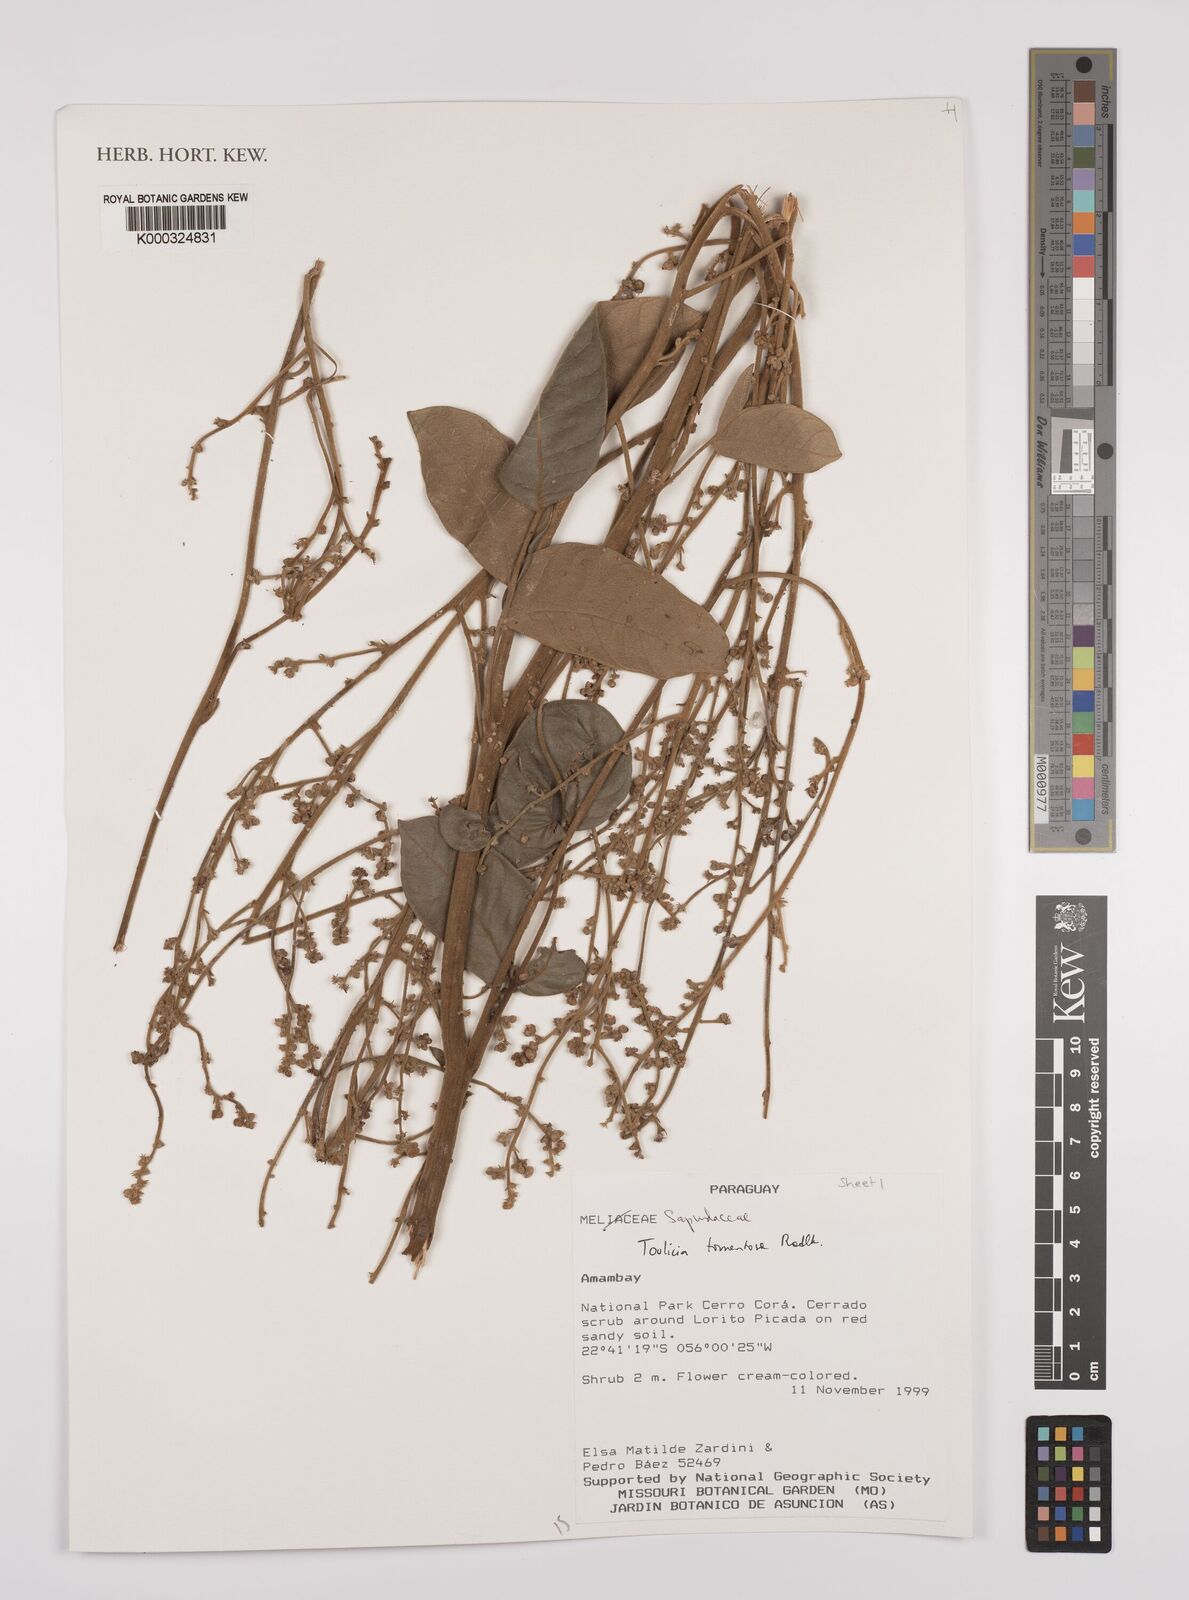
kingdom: Plantae
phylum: Tracheophyta
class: Magnoliopsida
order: Sapindales
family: Sapindaceae
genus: Toulicia
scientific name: Toulicia tomentosa
